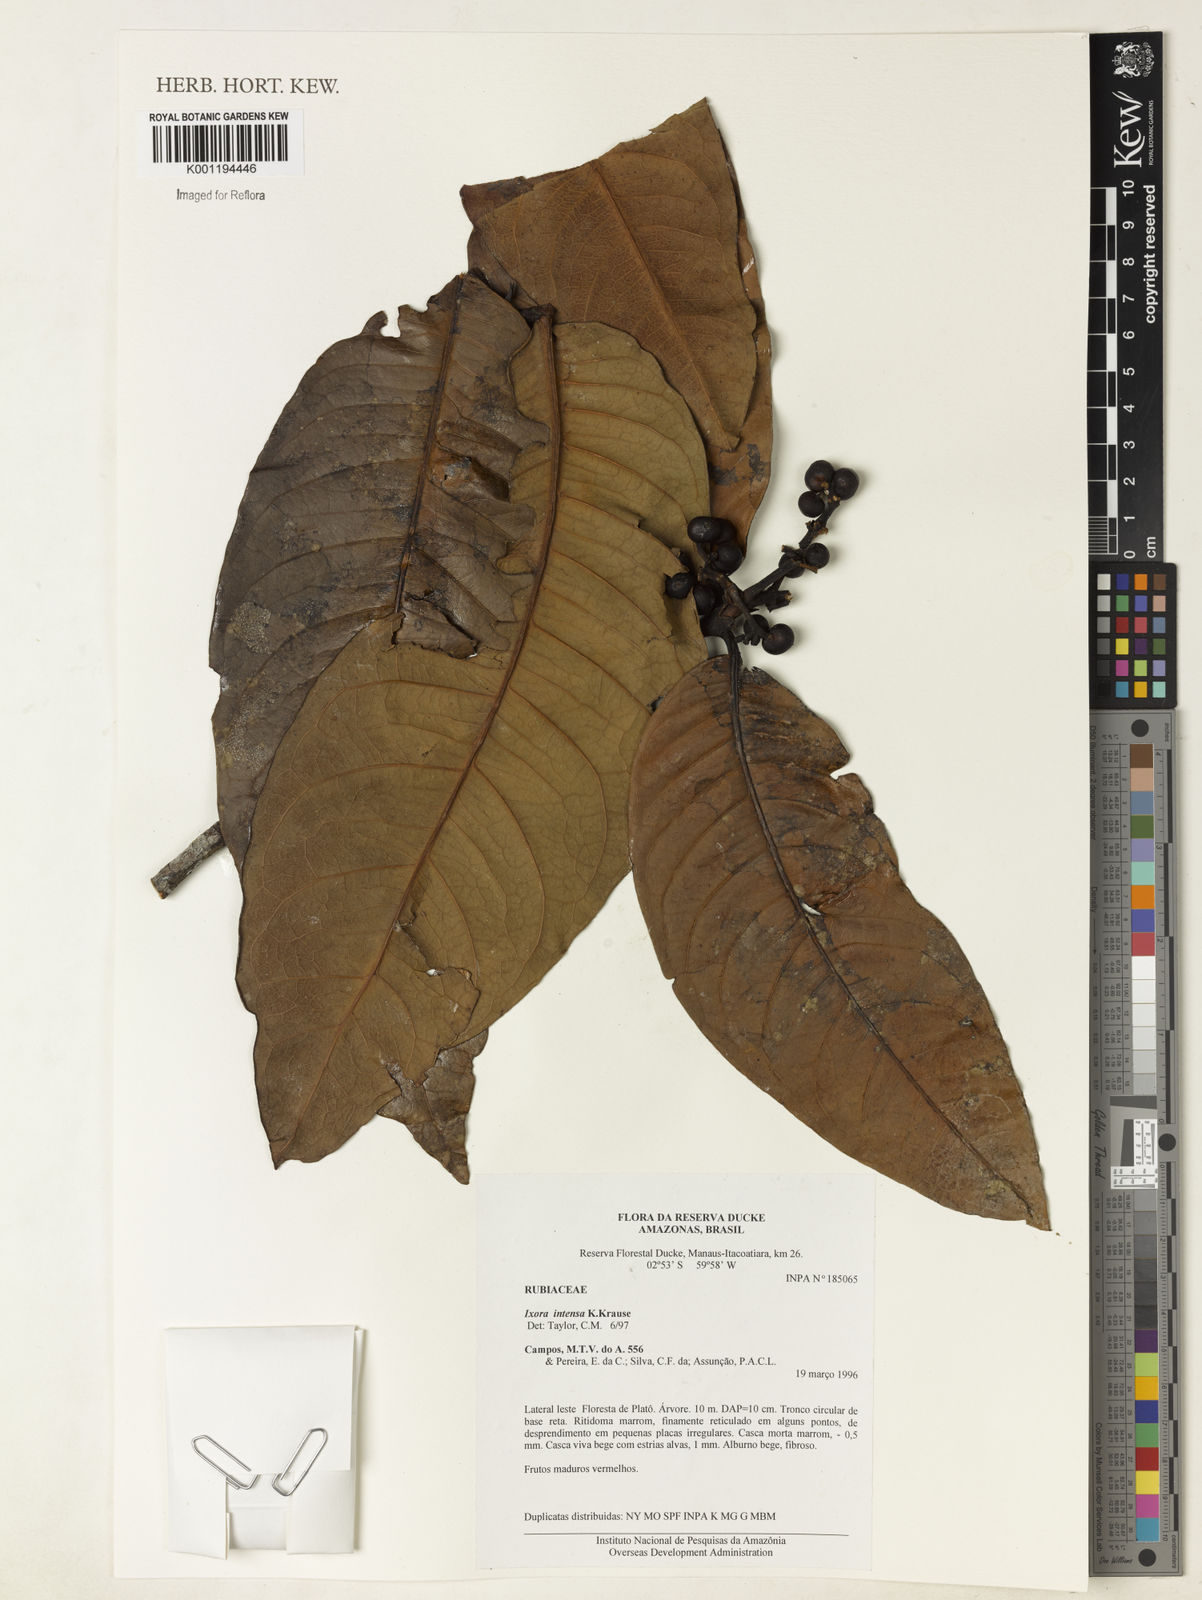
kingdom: Plantae
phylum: Tracheophyta
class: Magnoliopsida
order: Gentianales
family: Rubiaceae
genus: Ixora
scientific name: Ixora intensa
